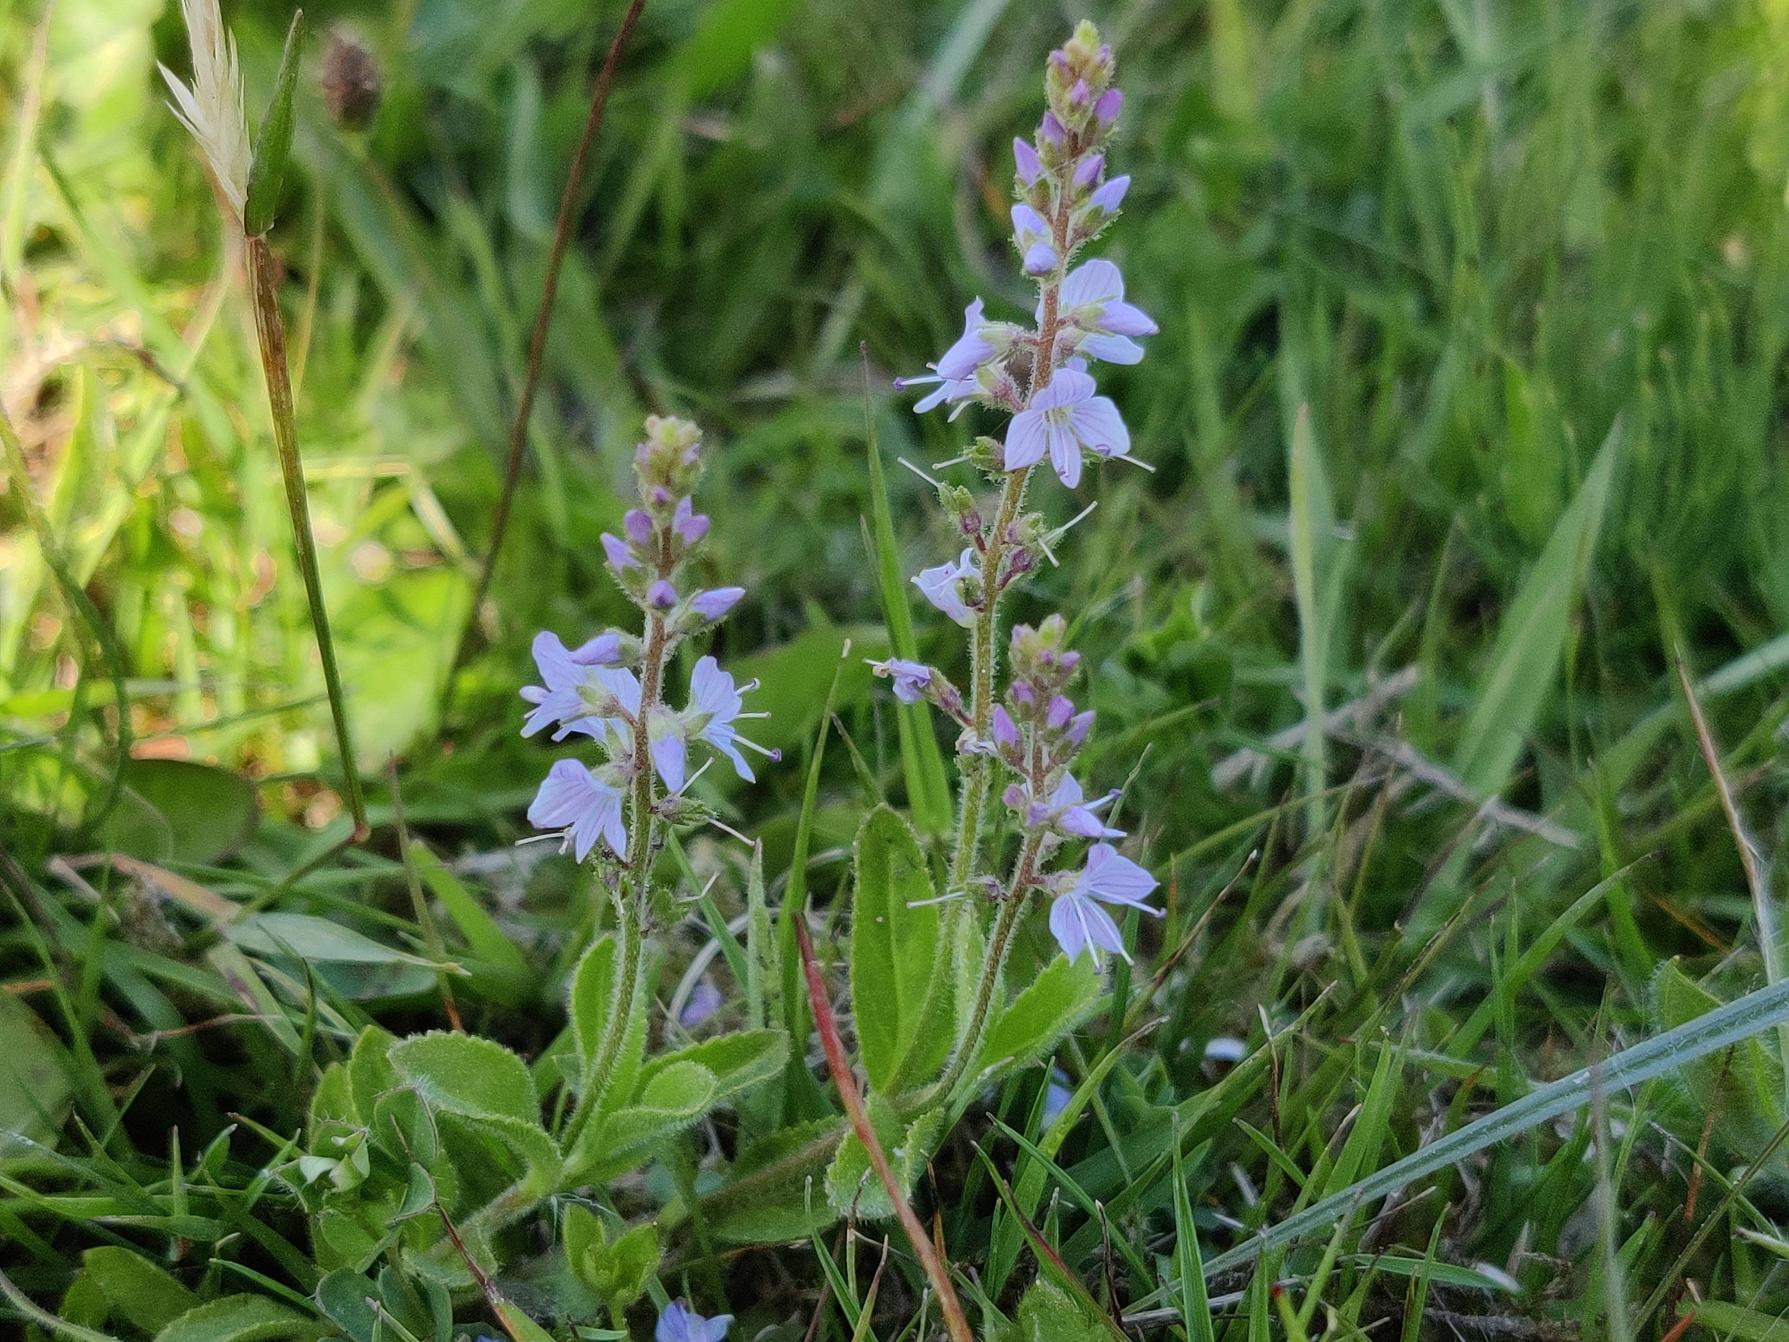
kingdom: Plantae
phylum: Tracheophyta
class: Magnoliopsida
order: Lamiales
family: Plantaginaceae
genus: Veronica
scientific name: Veronica officinalis
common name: Læge-ærenpris
